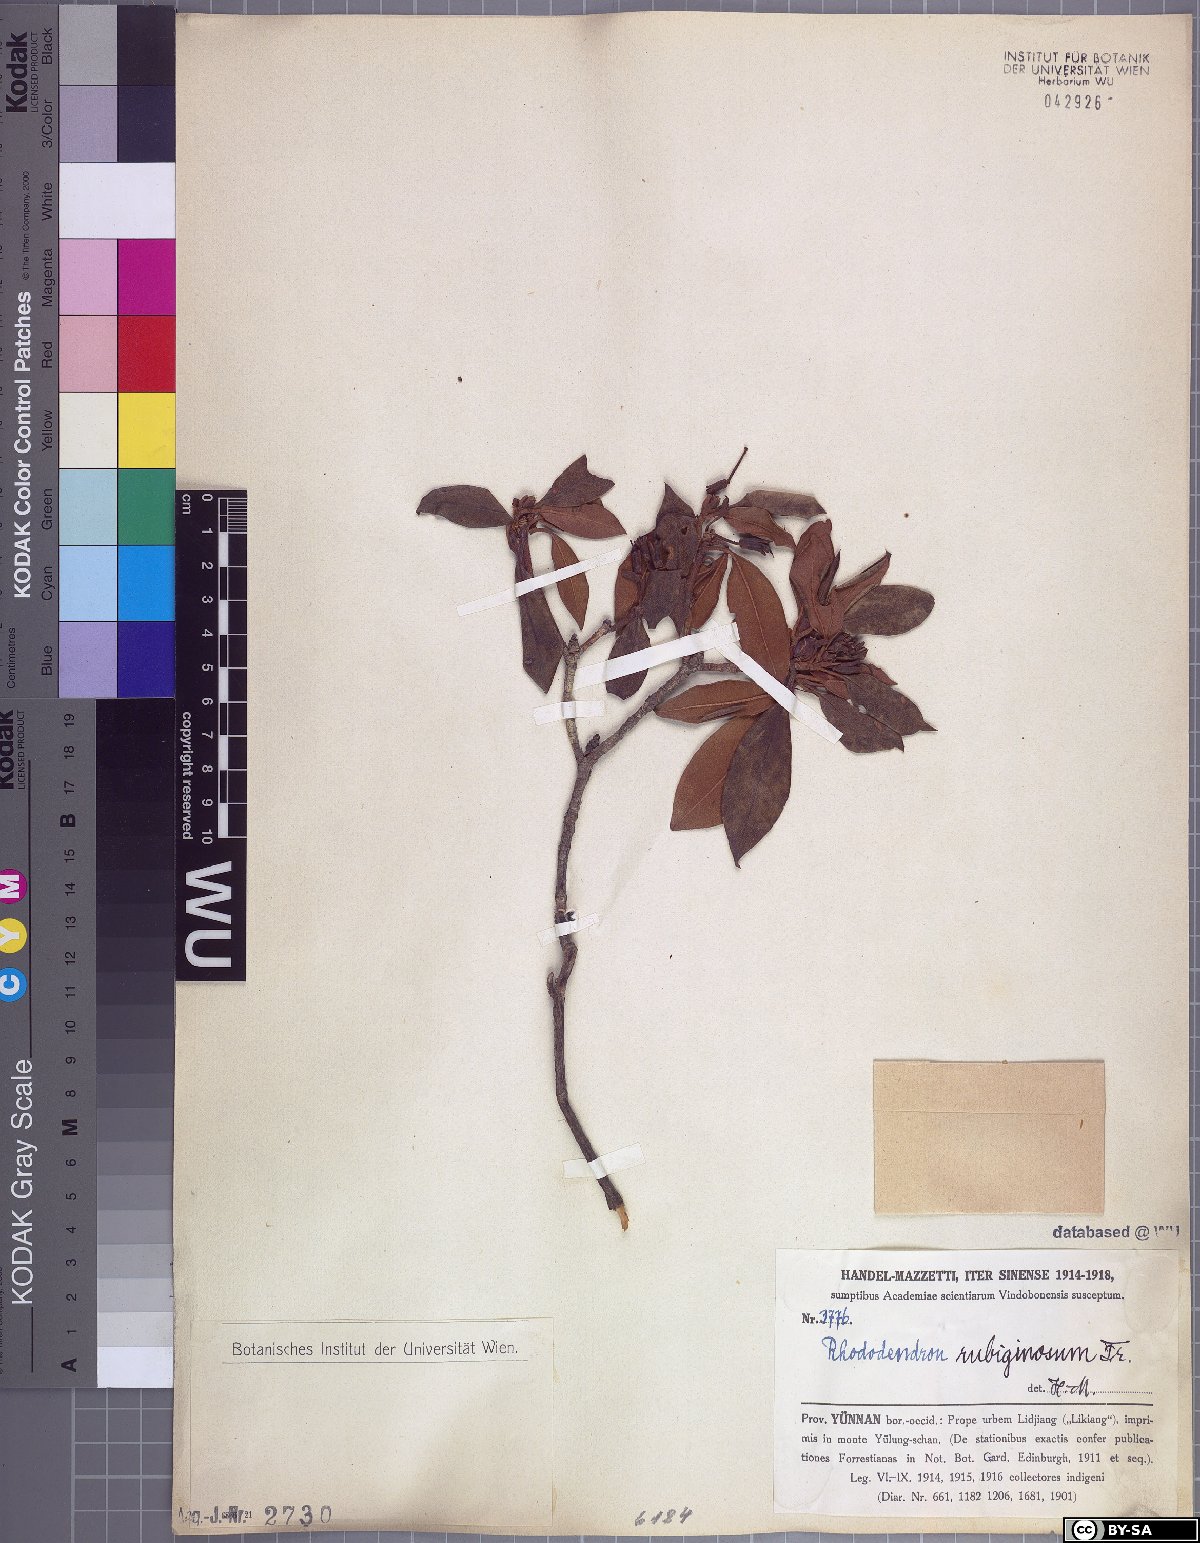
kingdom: Plantae
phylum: Tracheophyta
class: Magnoliopsida
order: Ericales
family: Ericaceae
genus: Rhododendron
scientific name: Rhododendron rubiginosum
